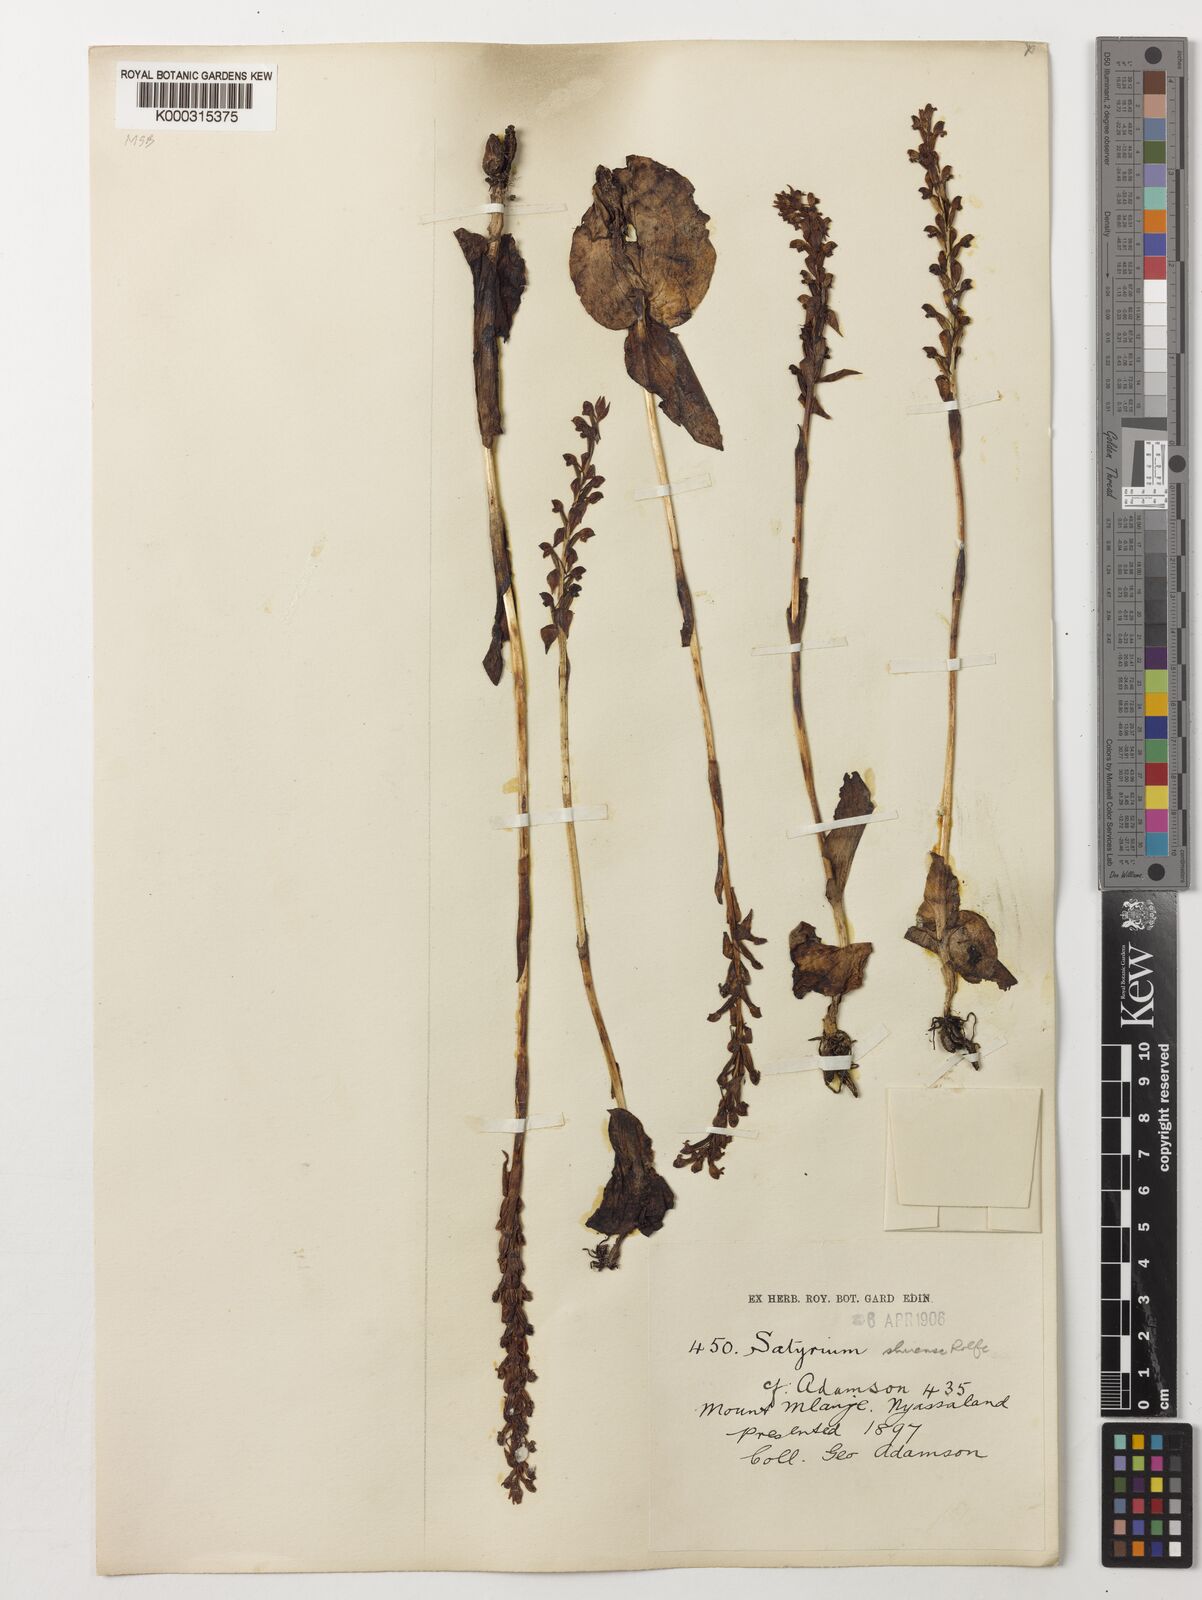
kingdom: Plantae
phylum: Tracheophyta
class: Liliopsida
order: Asparagales
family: Orchidaceae
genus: Satyrium
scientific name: Satyrium shirense
